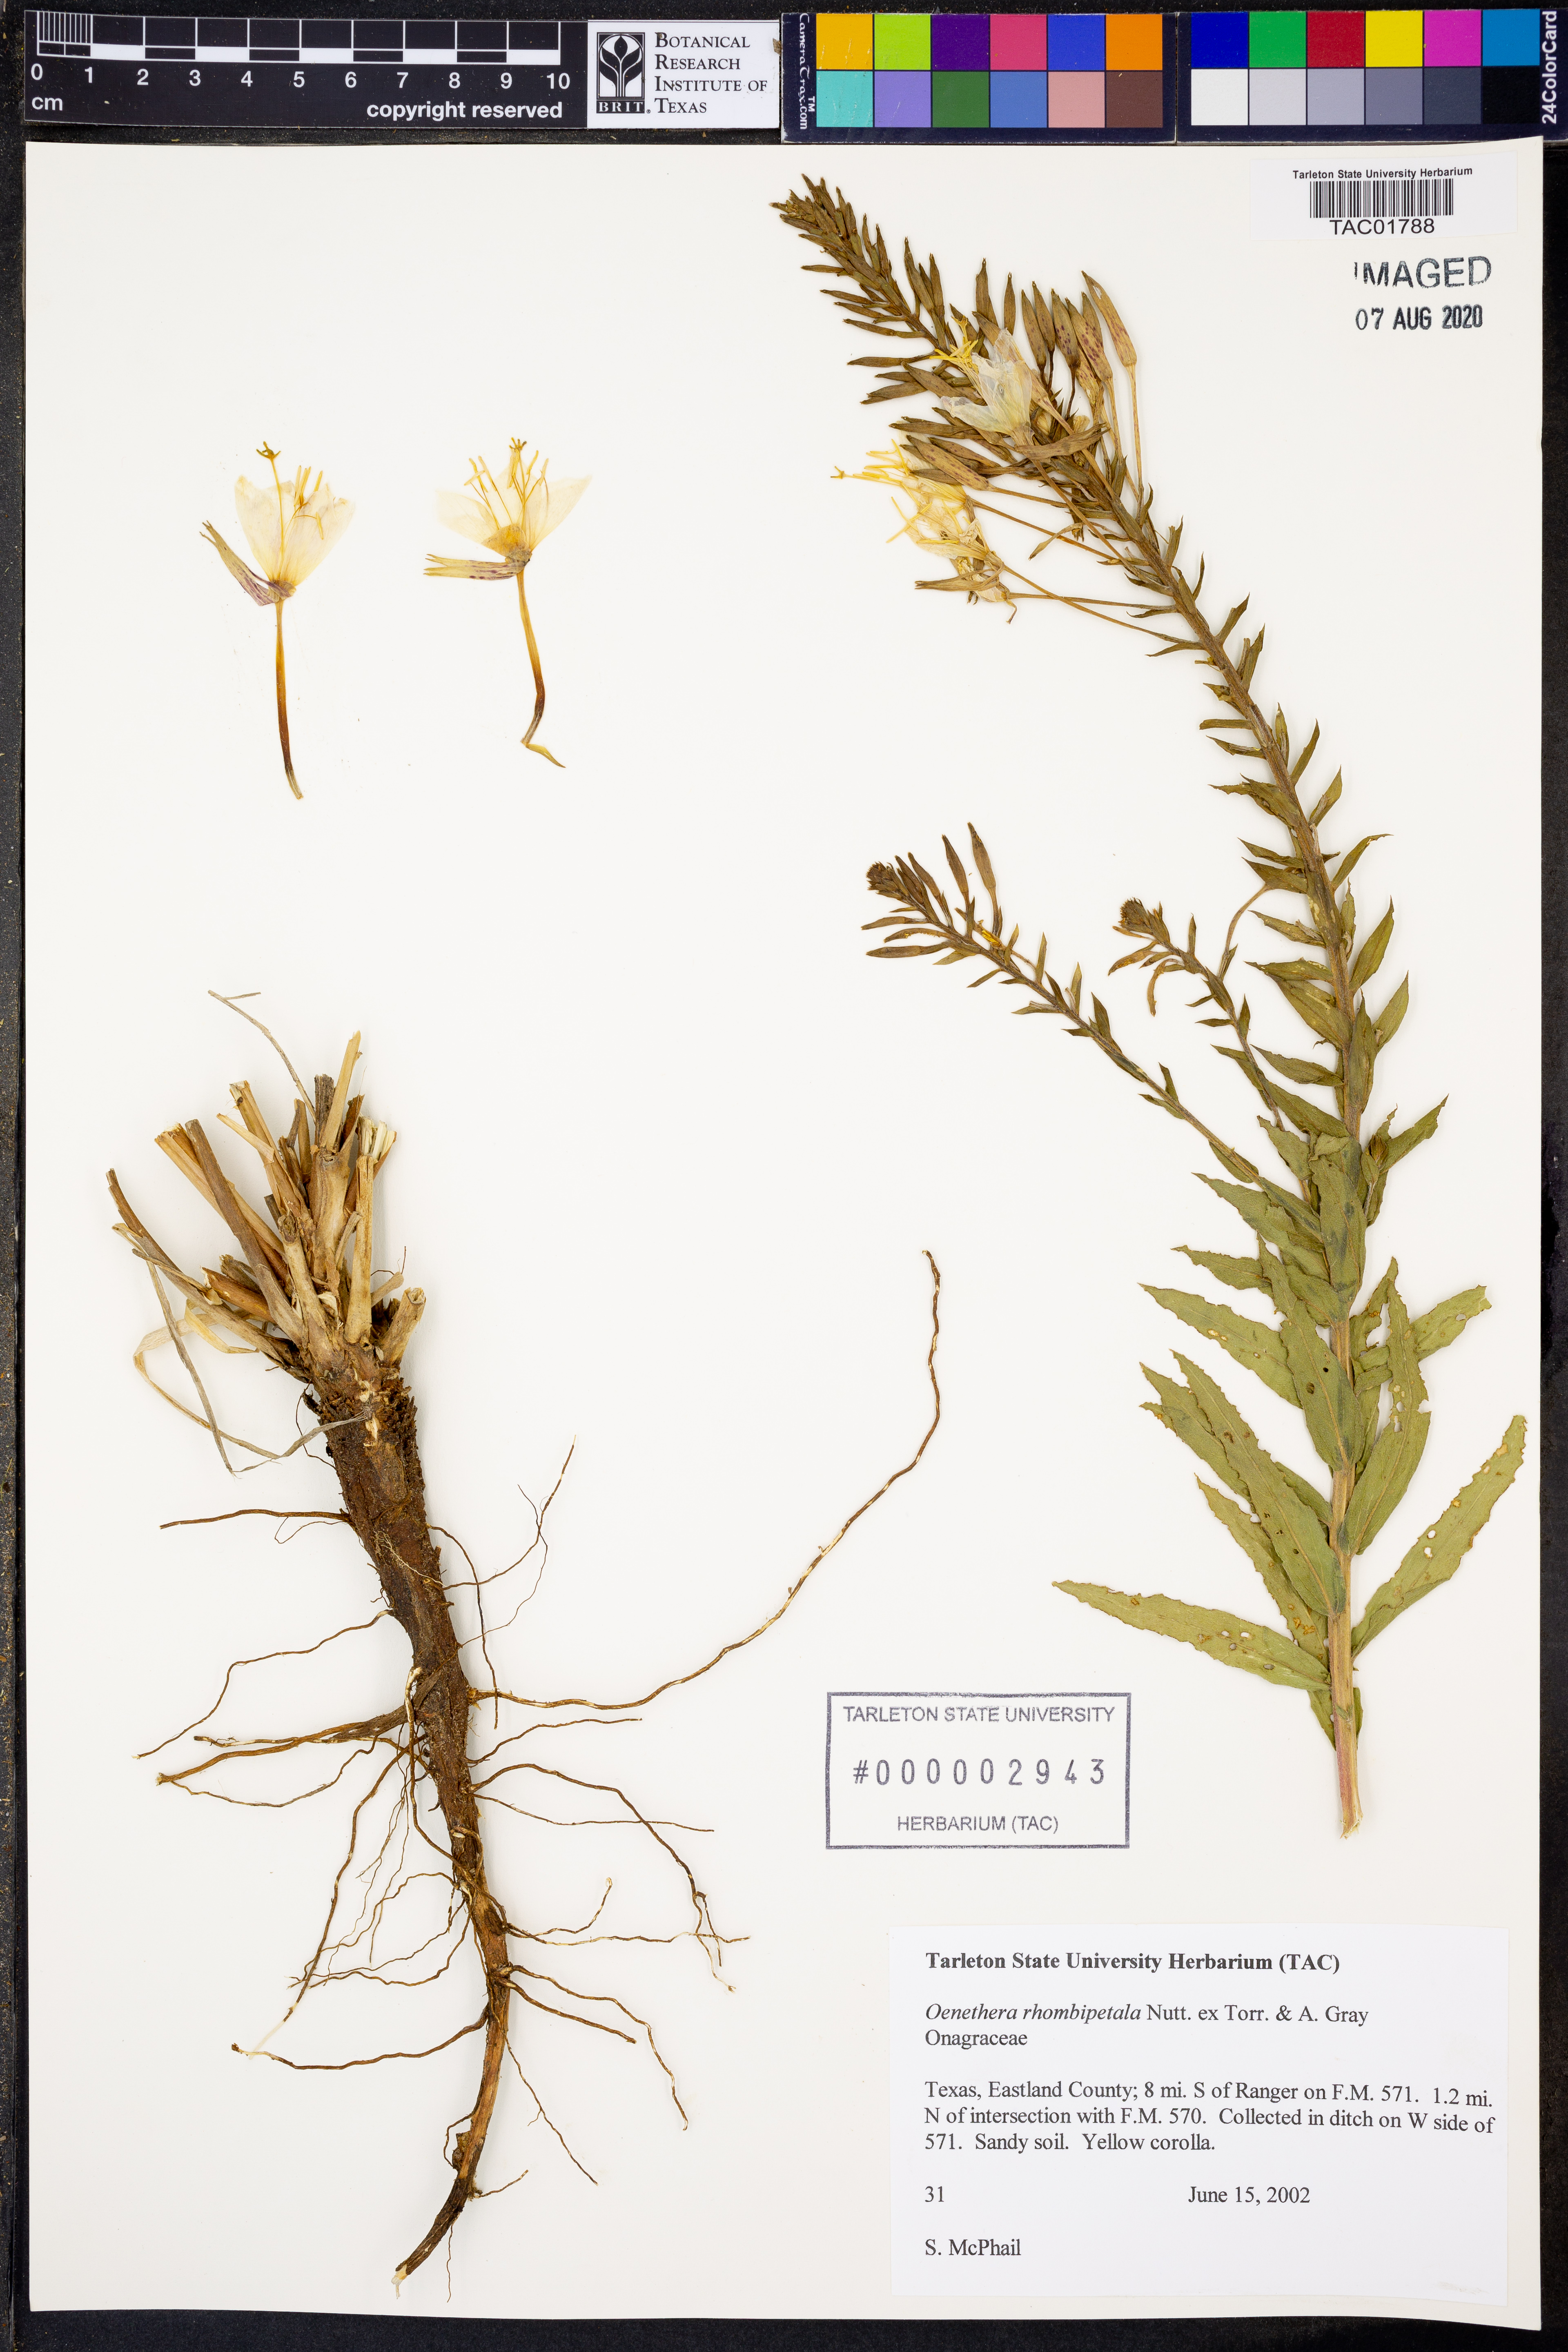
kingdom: Plantae
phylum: Tracheophyta
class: Magnoliopsida
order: Myrtales
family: Onagraceae
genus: Oenothera
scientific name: Oenothera rhombipetala
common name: Four-points evening-primrose
